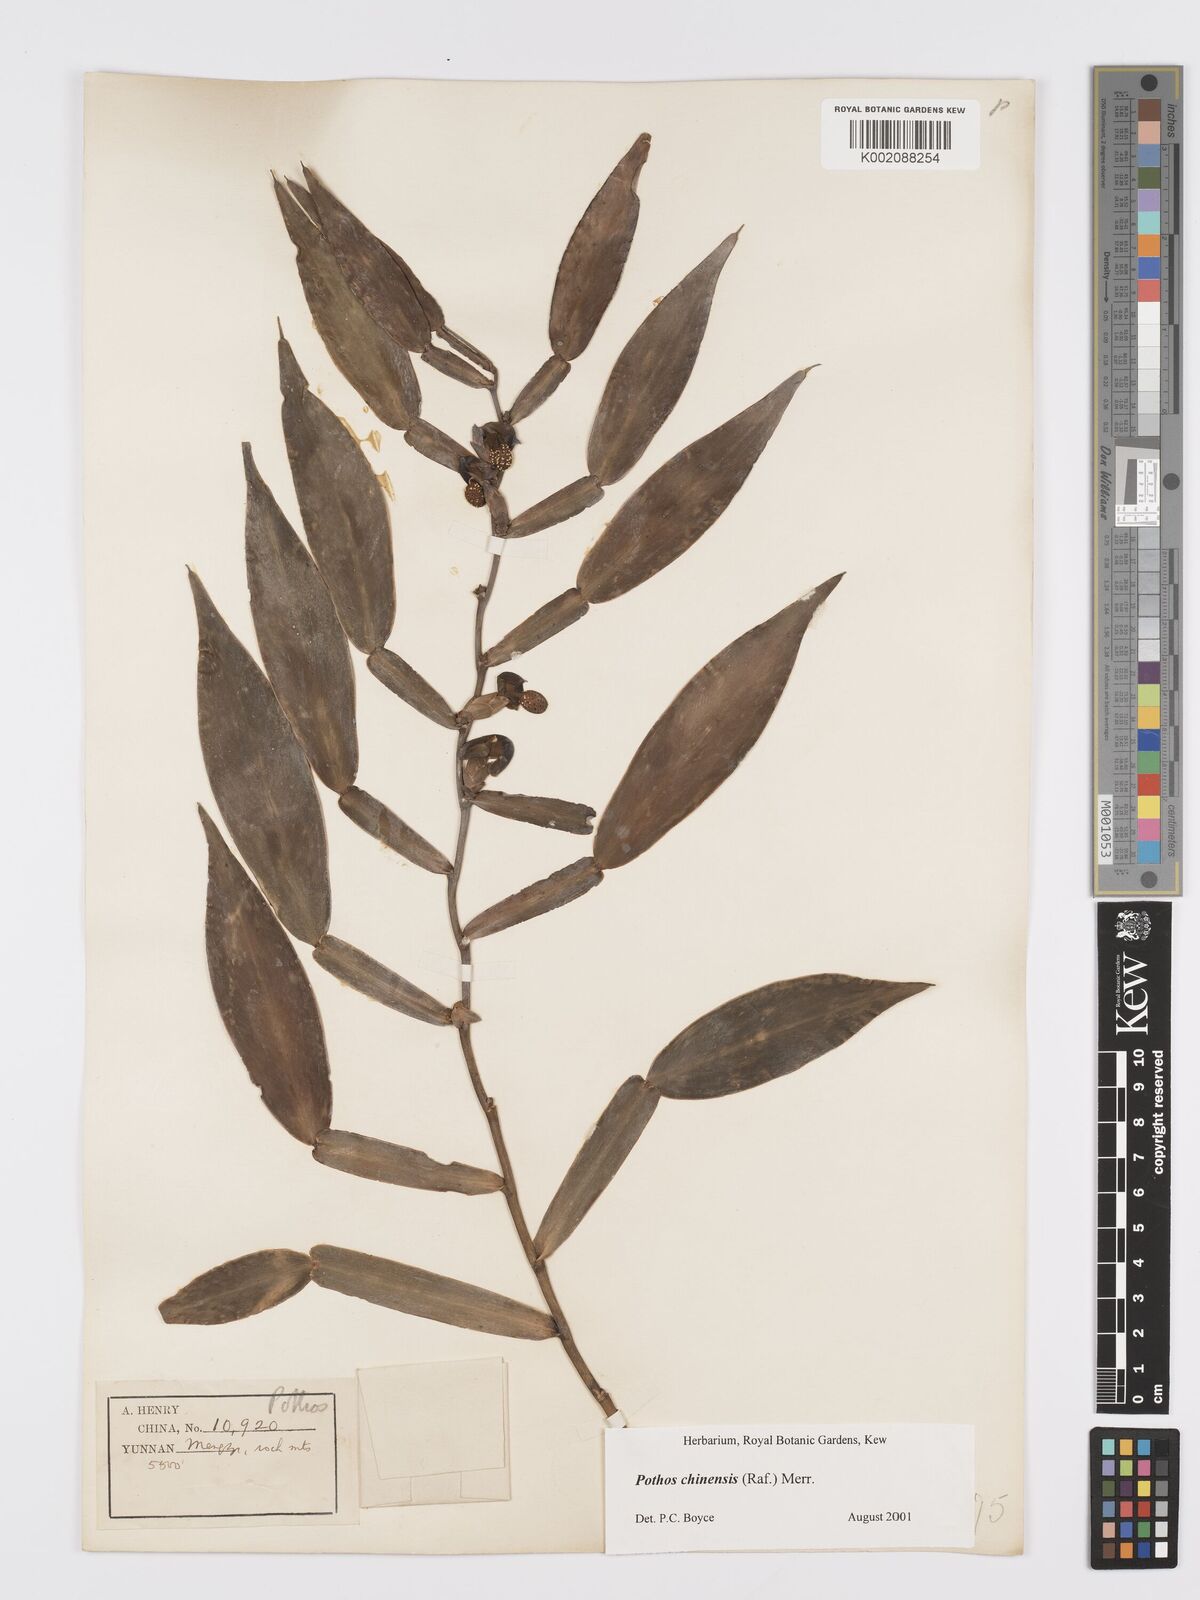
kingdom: Plantae
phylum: Tracheophyta
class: Liliopsida
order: Alismatales
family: Araceae
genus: Pothos
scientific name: Pothos chinensis
